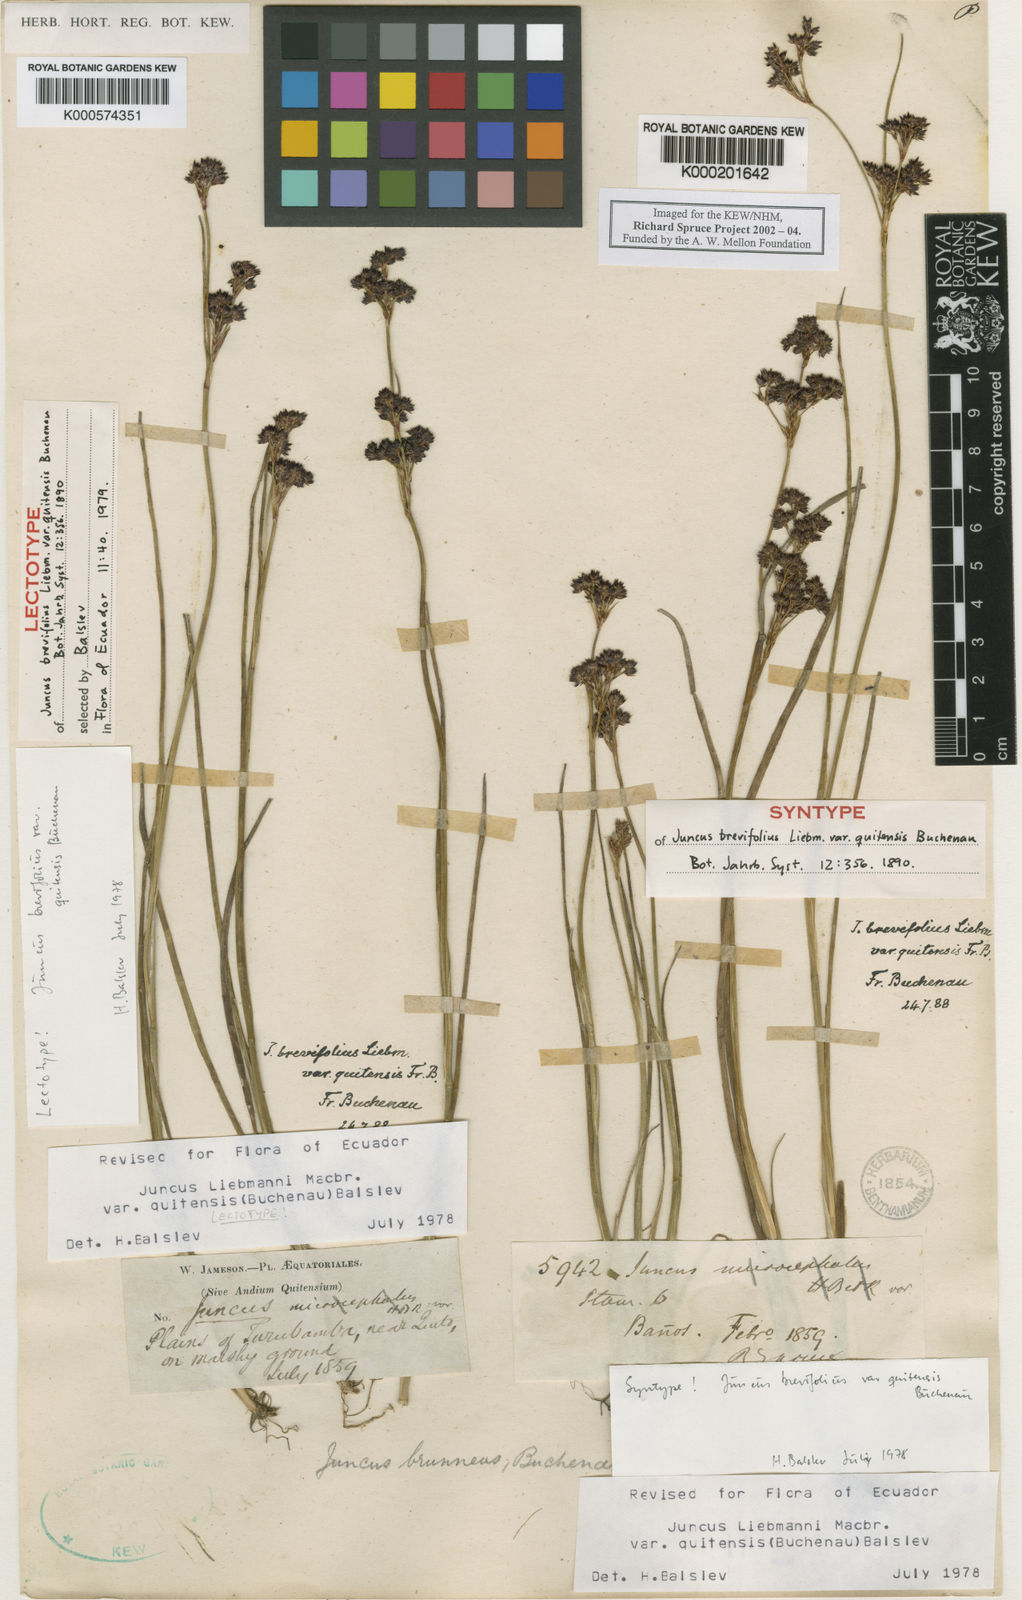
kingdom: Plantae
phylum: Tracheophyta
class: Liliopsida
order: Poales
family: Juncaceae
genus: Juncus
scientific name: Juncus liebmannii
